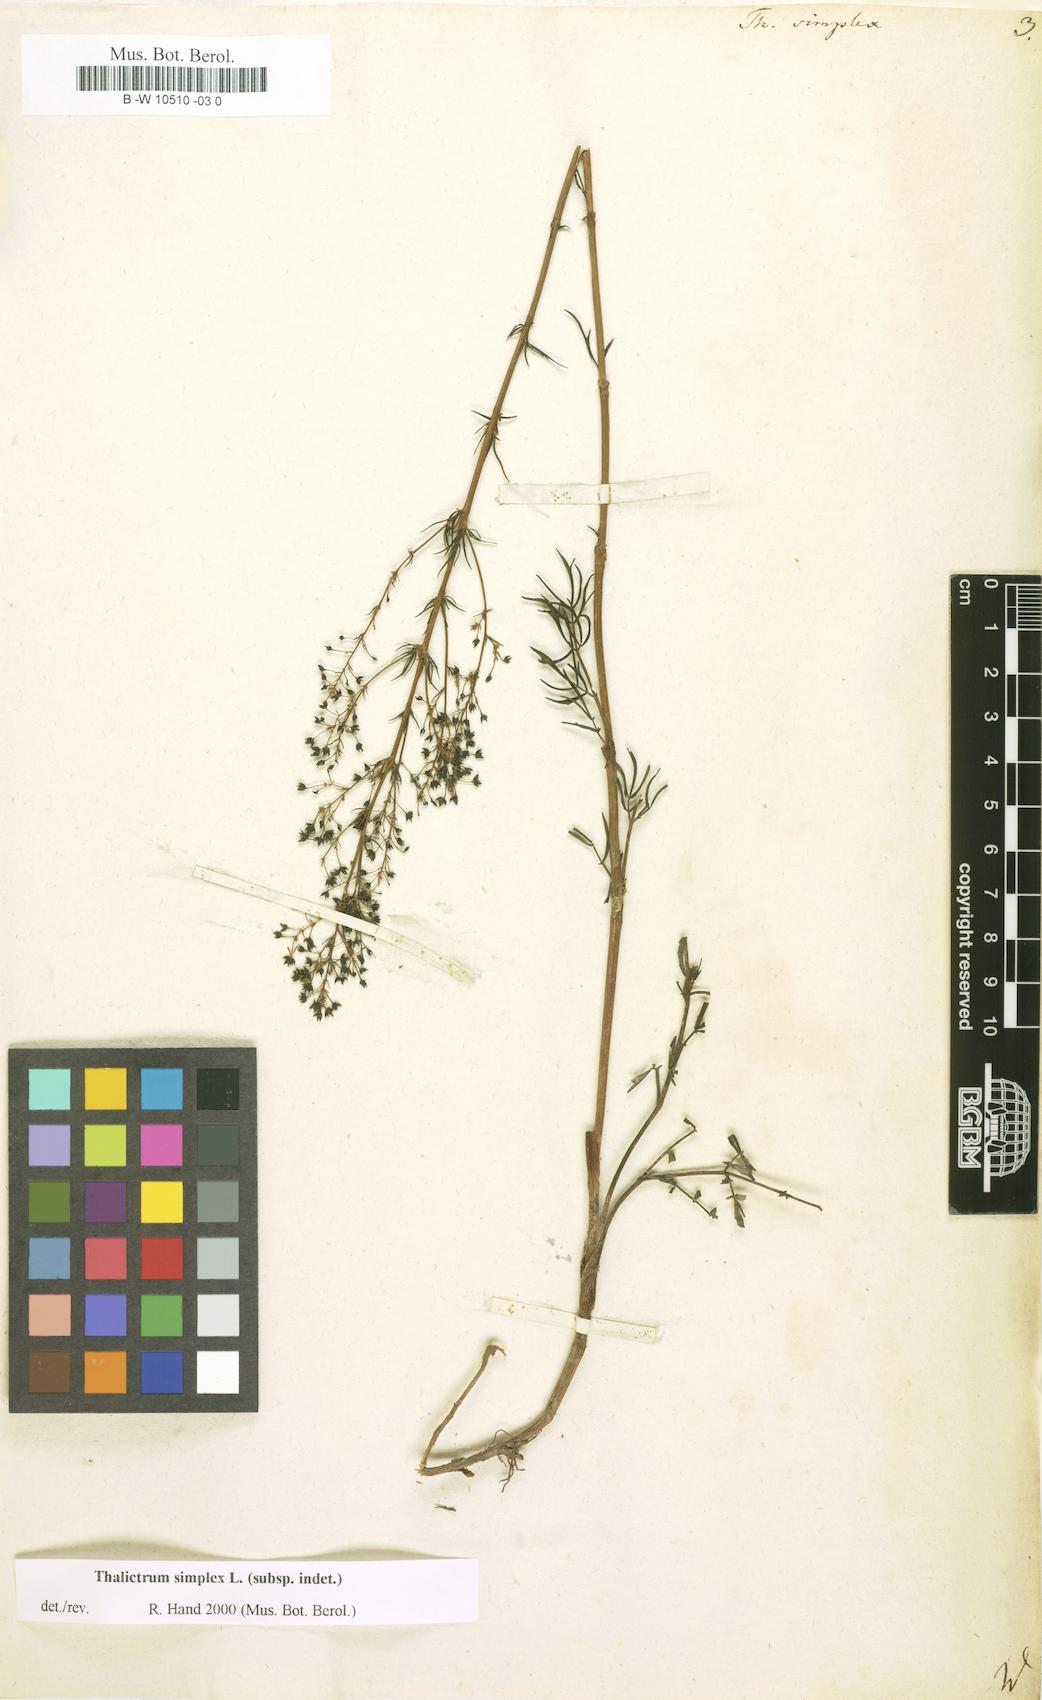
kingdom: Plantae
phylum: Tracheophyta
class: Magnoliopsida
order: Ranunculales
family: Ranunculaceae
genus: Thalictrum
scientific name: Thalictrum simplex
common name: Small meadow-rue
